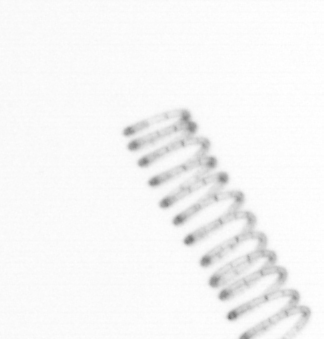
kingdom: Chromista
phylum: Ochrophyta
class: Bacillariophyceae
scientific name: Bacillariophyceae
